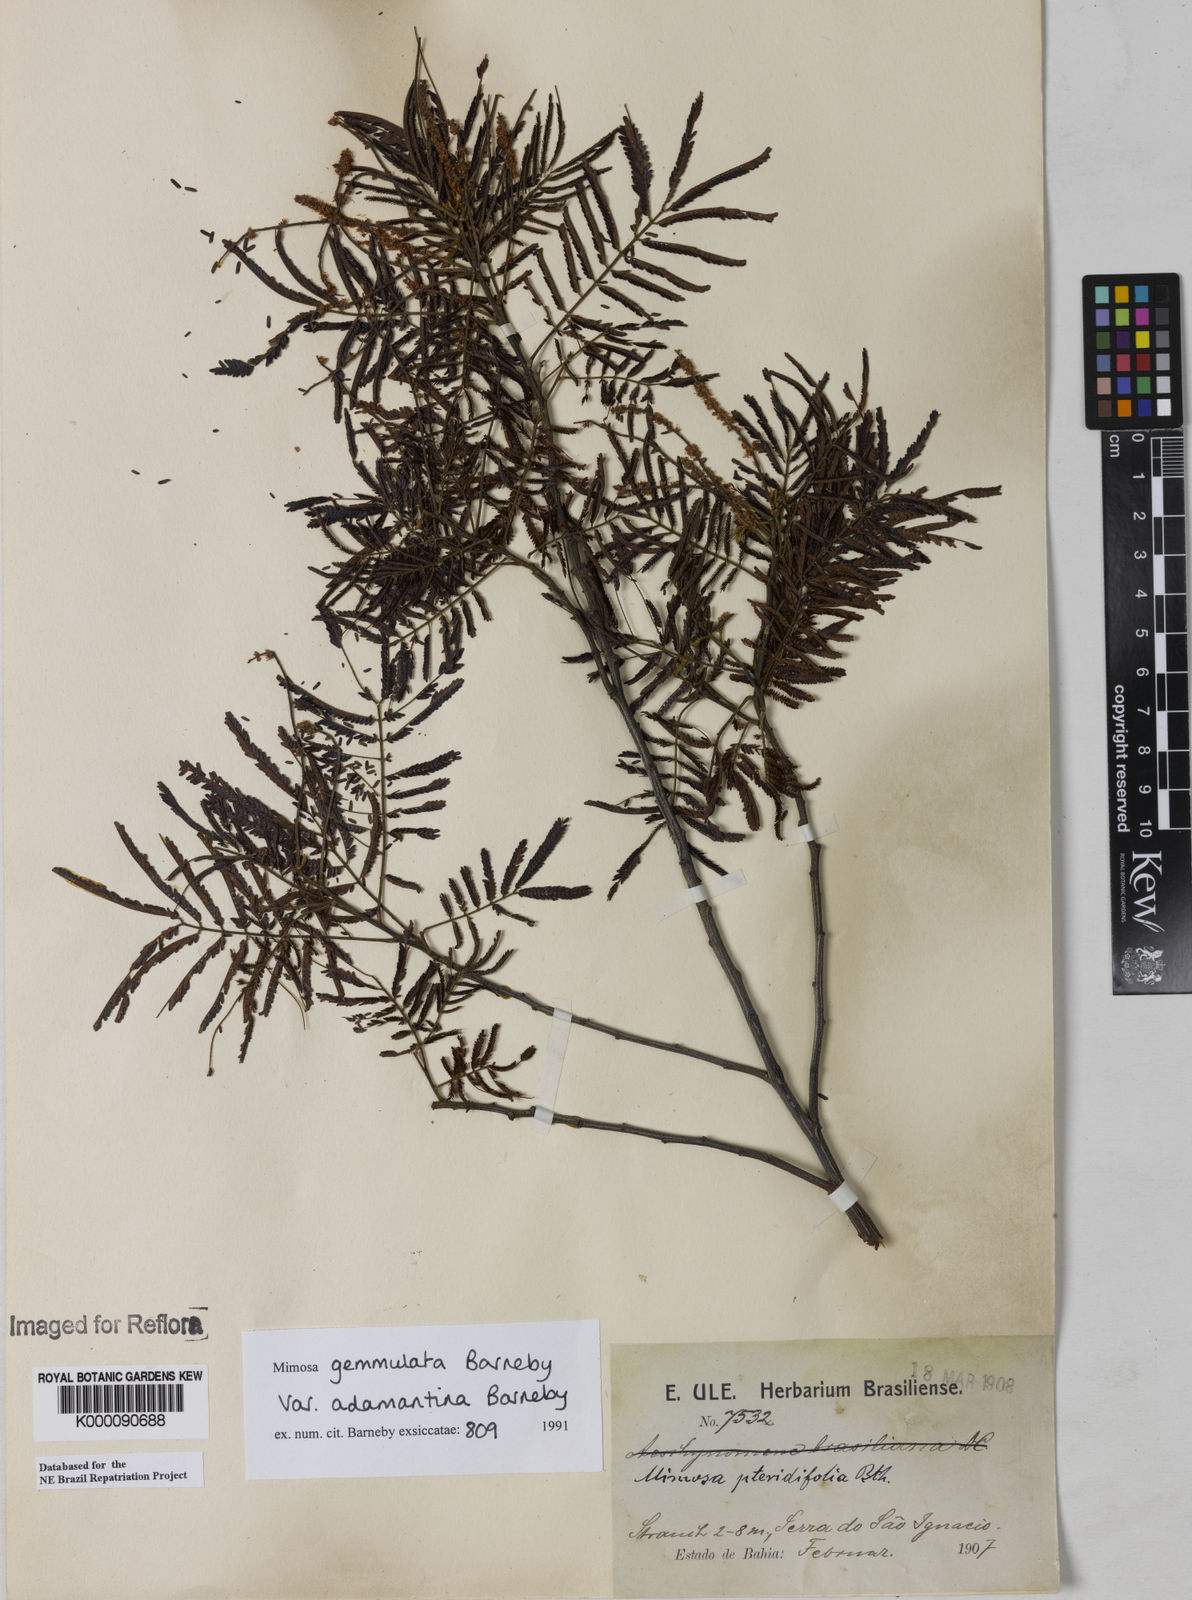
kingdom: Plantae
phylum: Tracheophyta
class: Magnoliopsida
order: Fabales
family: Fabaceae
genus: Mimosa
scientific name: Mimosa gemmulata
